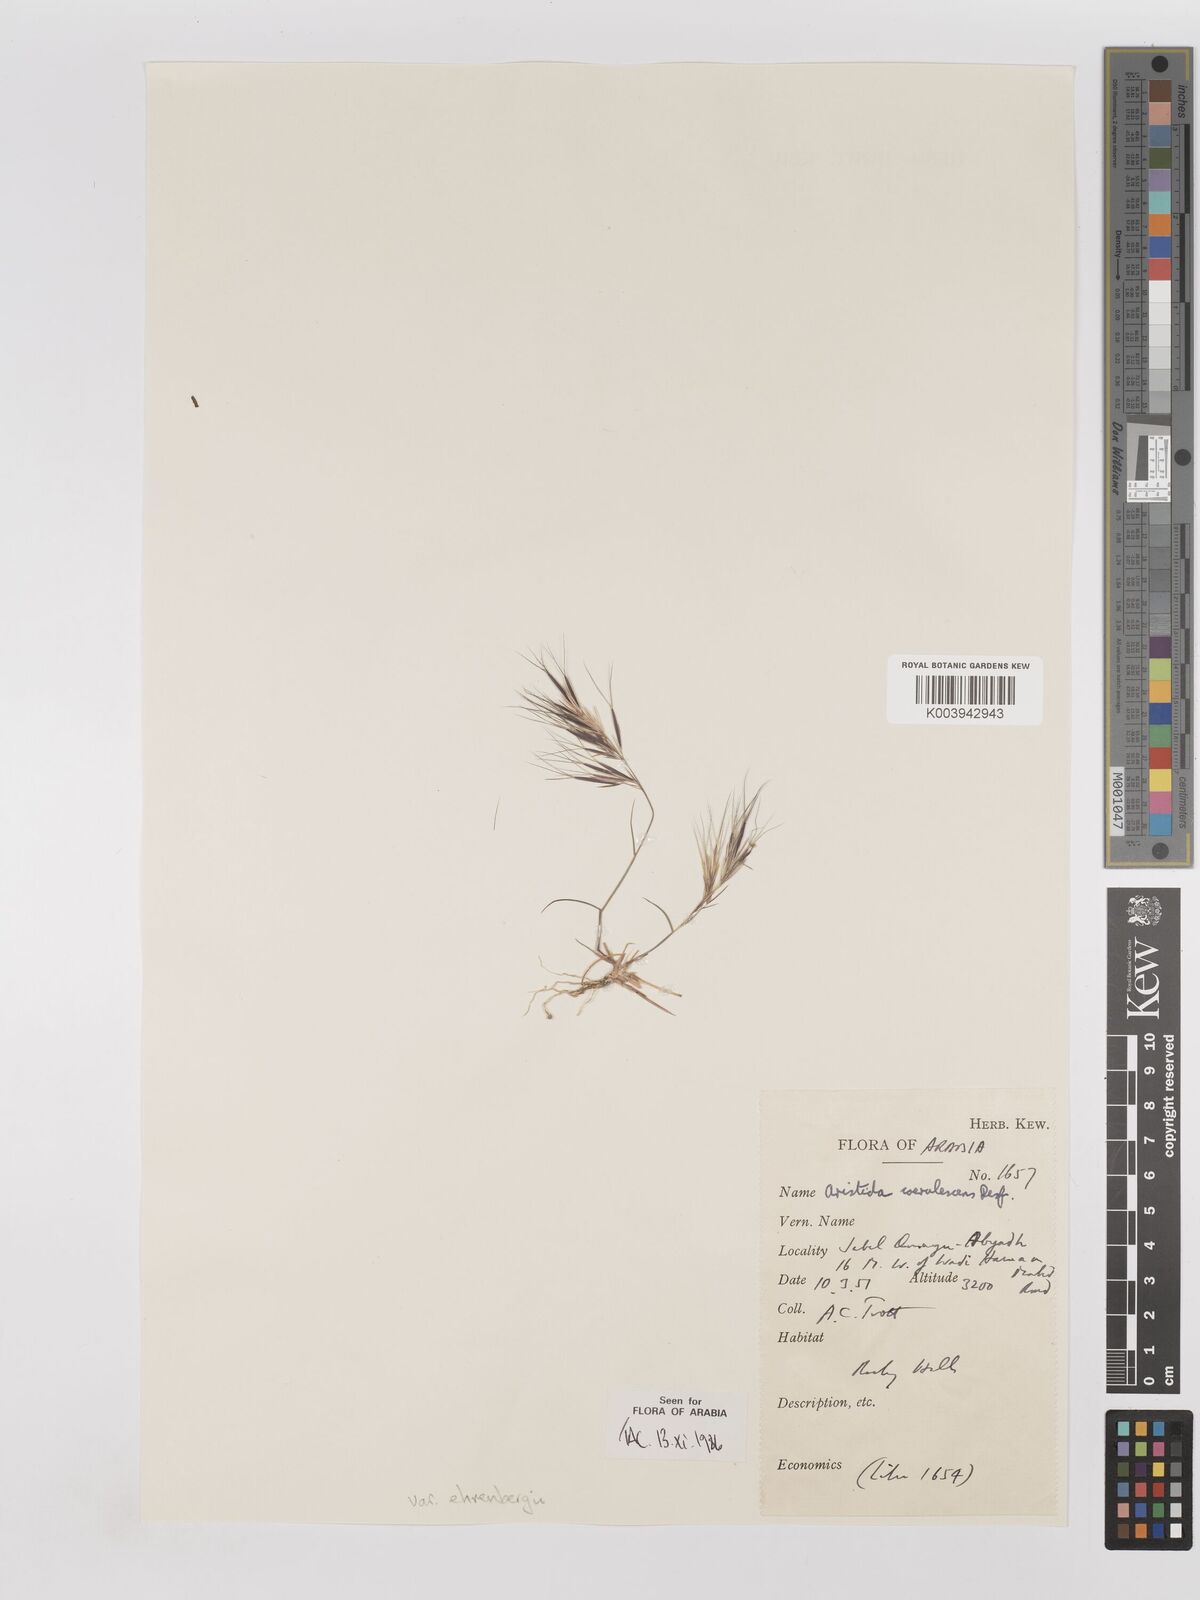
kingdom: Plantae
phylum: Tracheophyta
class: Liliopsida
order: Poales
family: Poaceae
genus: Aristida
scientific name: Aristida adscensionis
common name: Sixweeks threeawn
